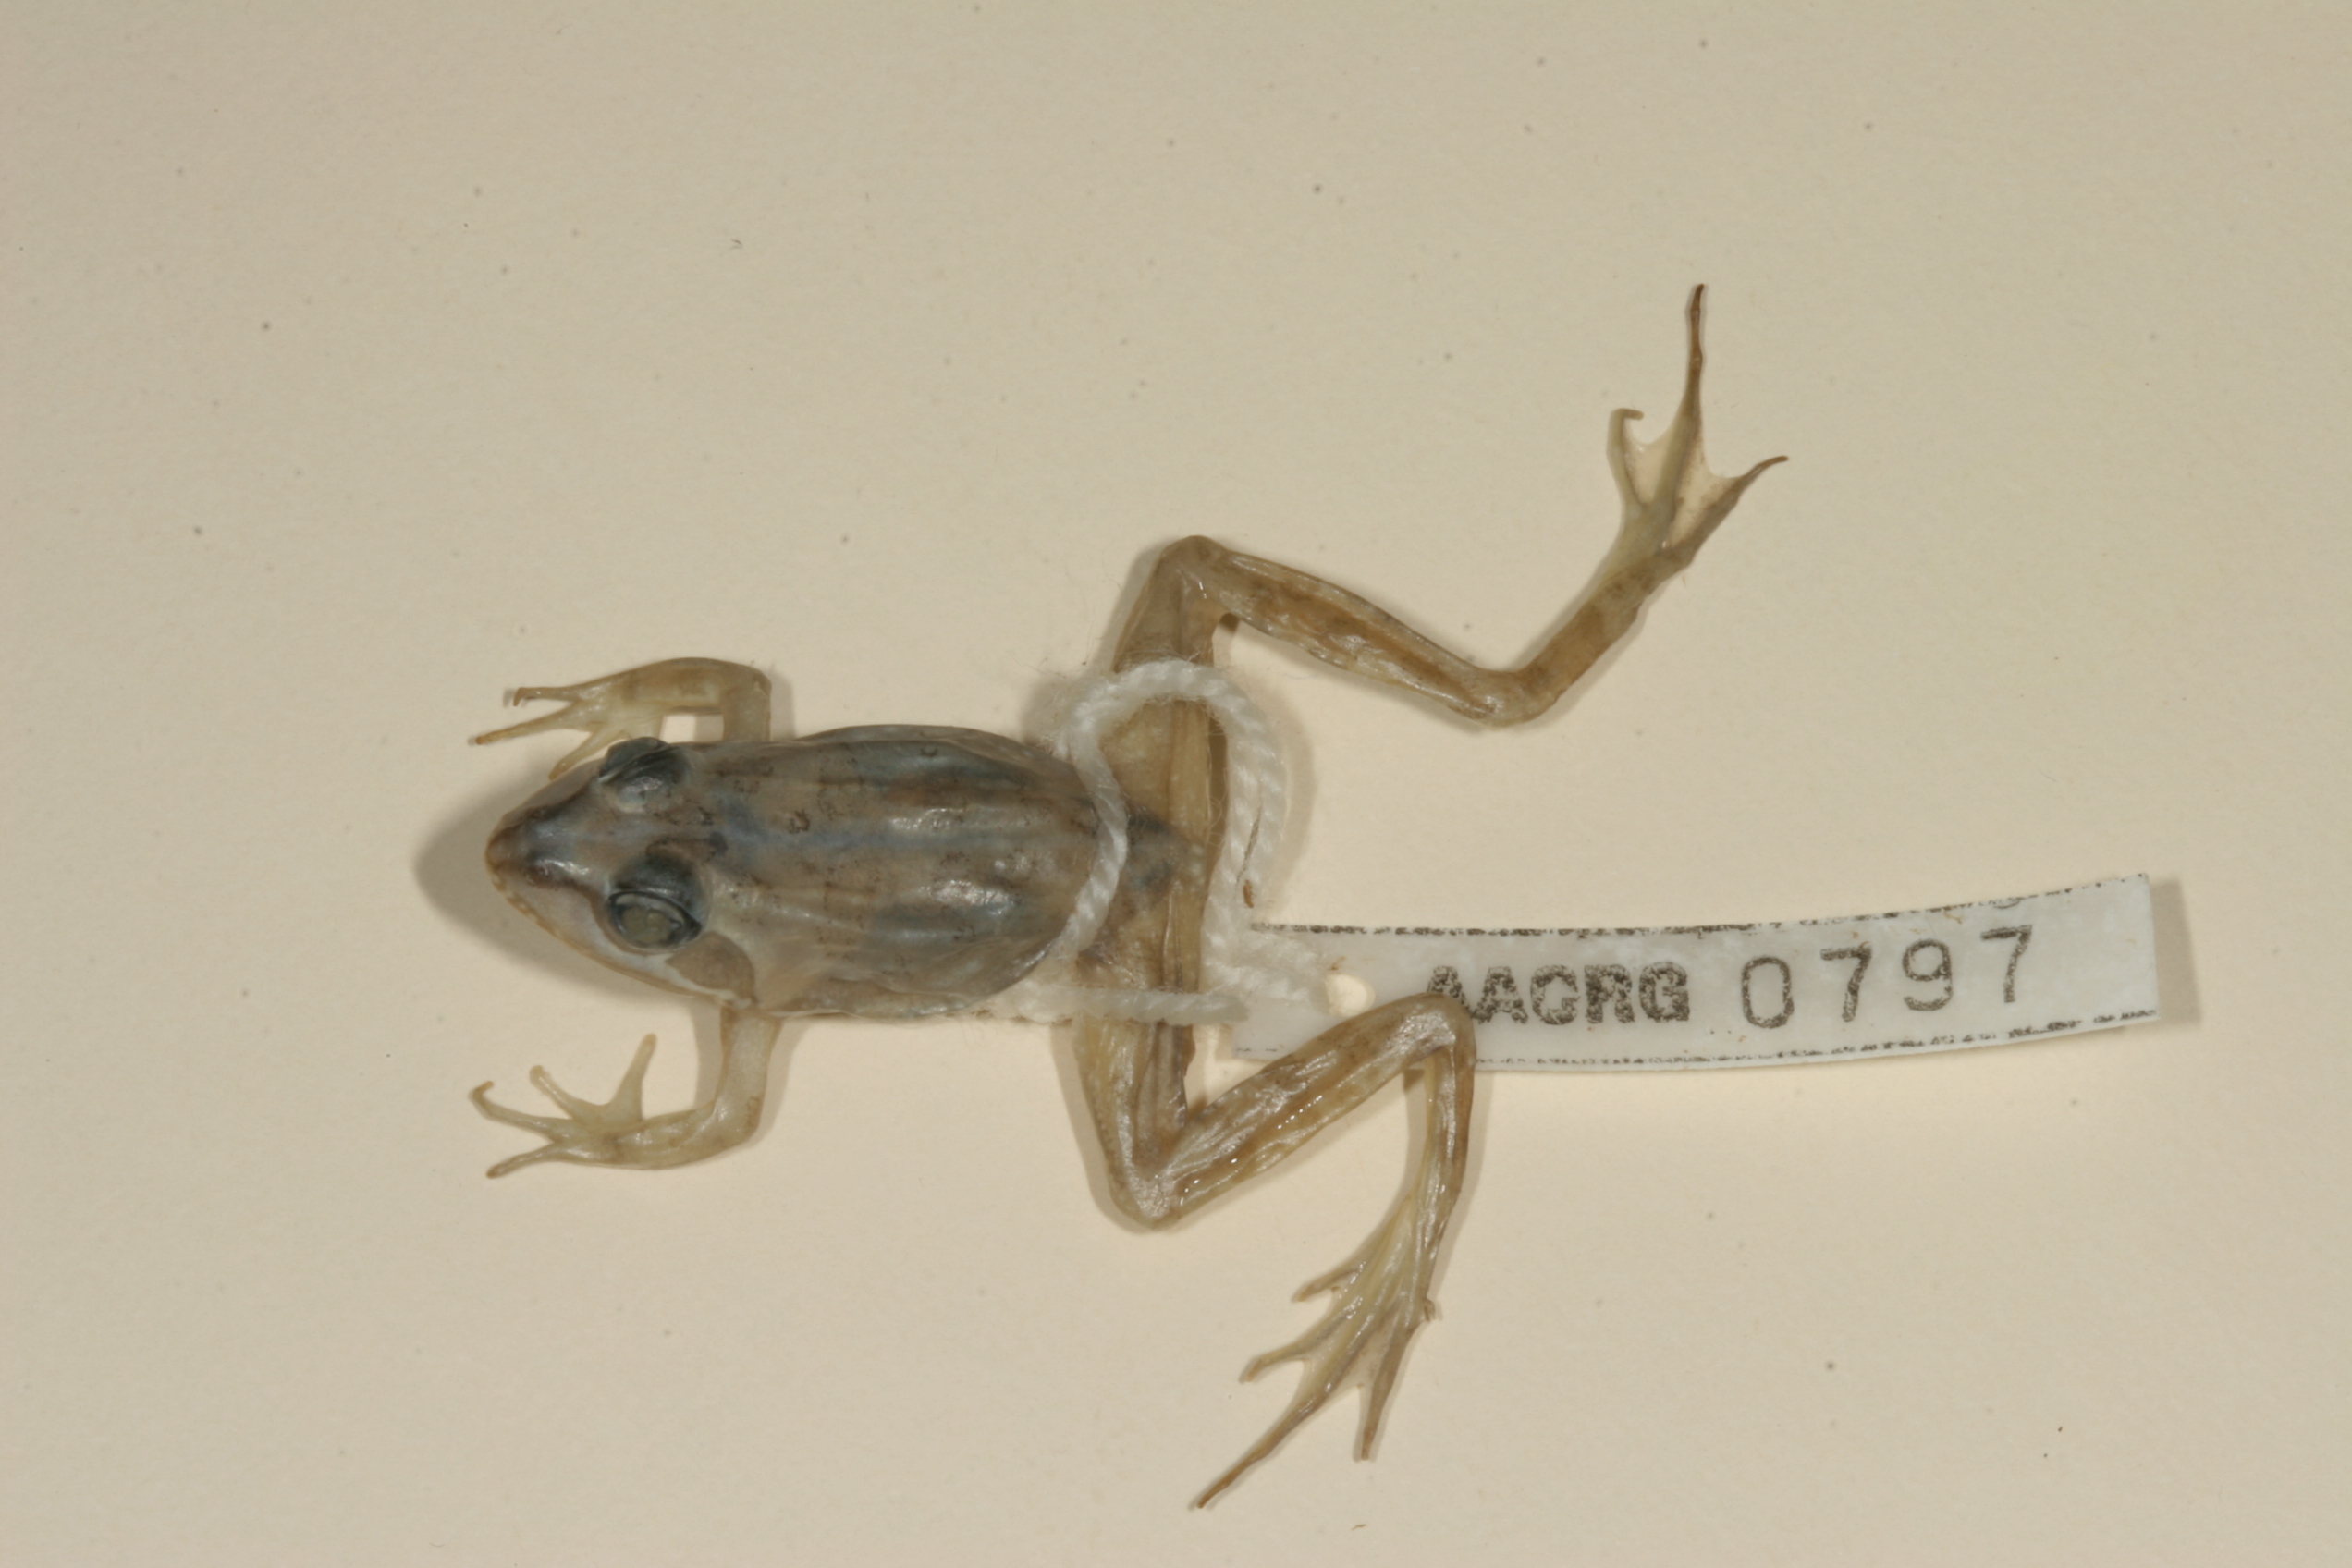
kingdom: Animalia
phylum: Chordata
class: Amphibia
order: Anura
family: Pyxicephalidae
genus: Amietia
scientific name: Amietia angolensis
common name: Dusky-throated frog
